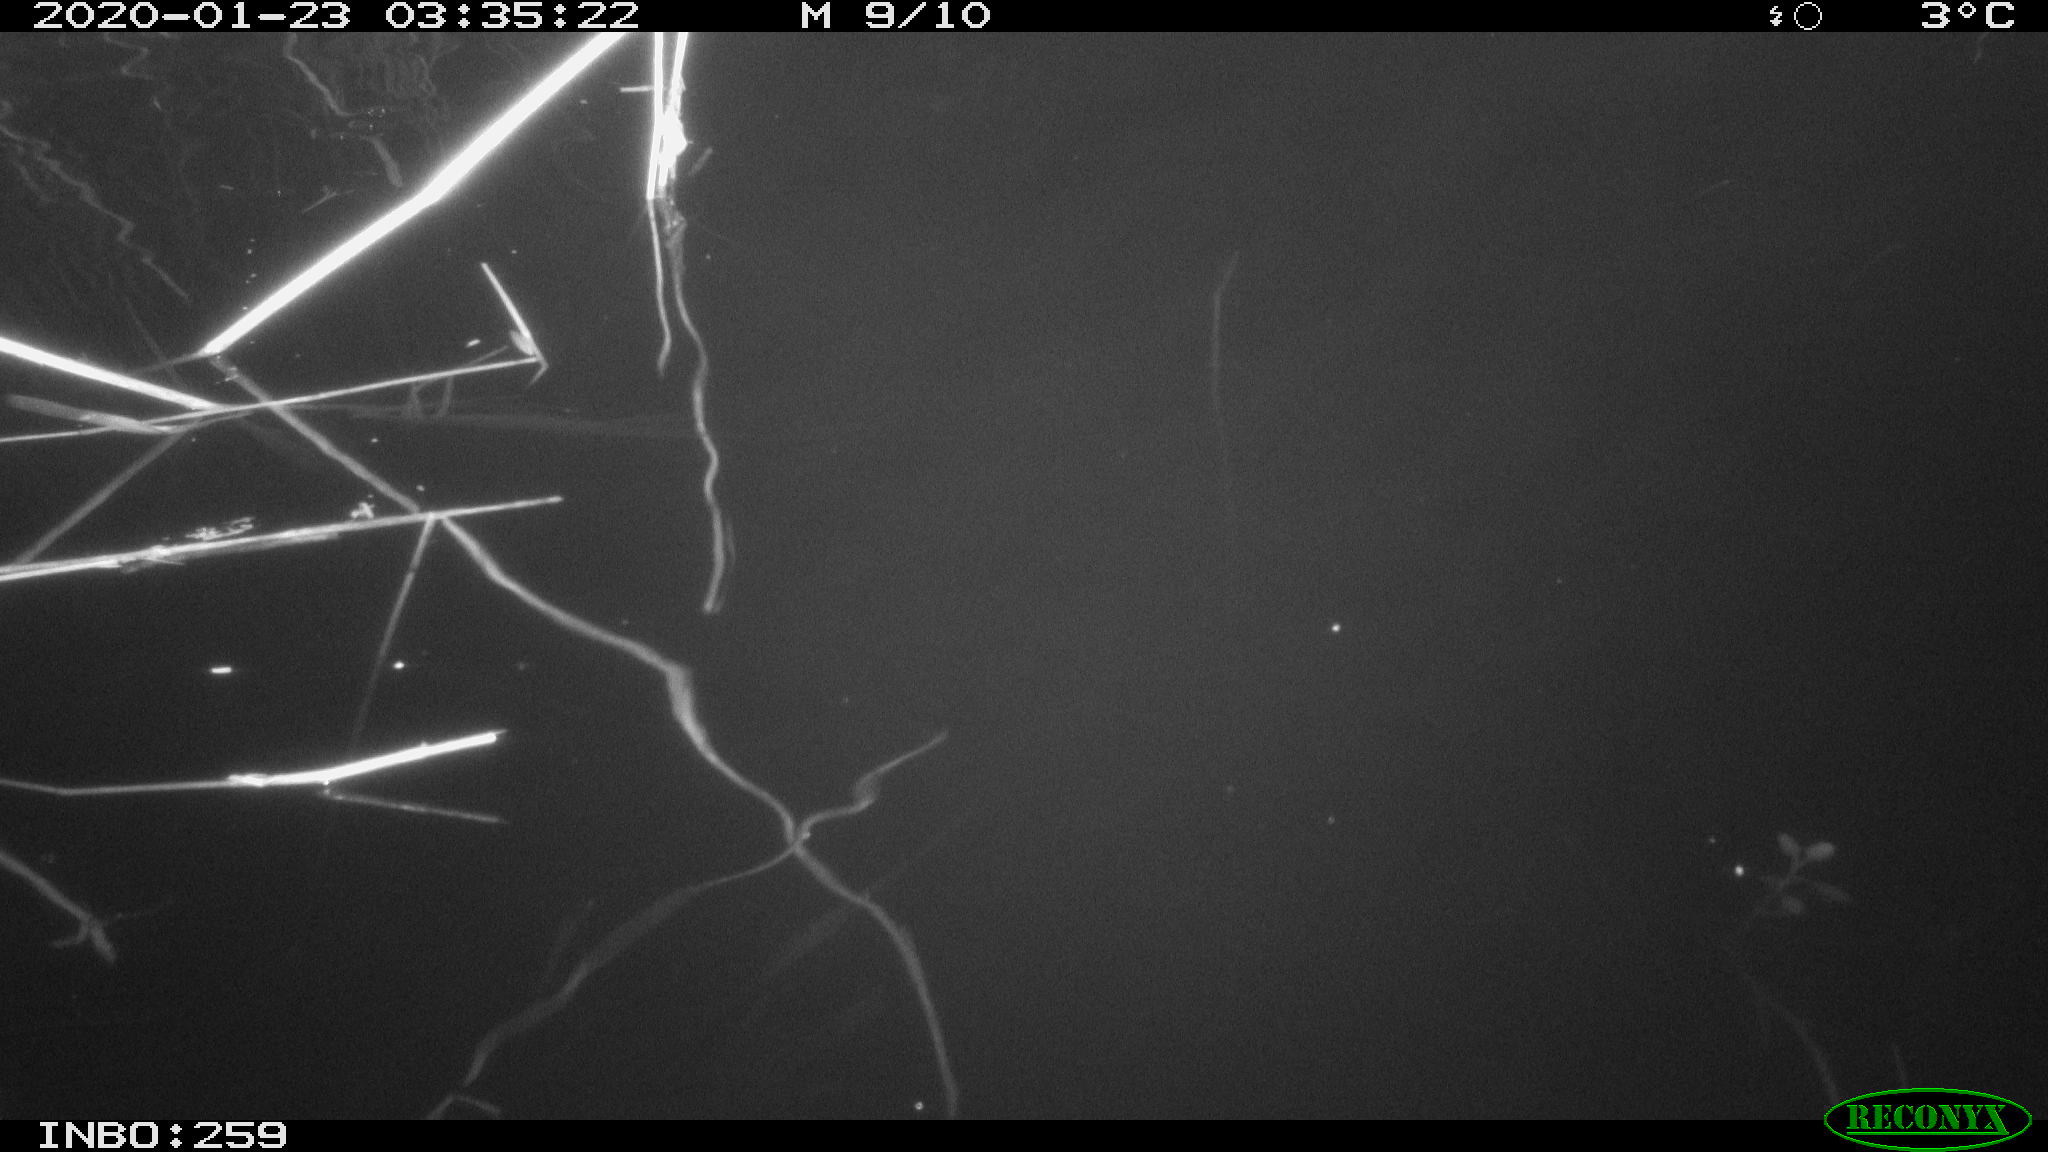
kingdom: Animalia
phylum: Chordata
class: Mammalia
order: Rodentia
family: Cricetidae
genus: Ondatra
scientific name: Ondatra zibethicus
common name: Muskrat
